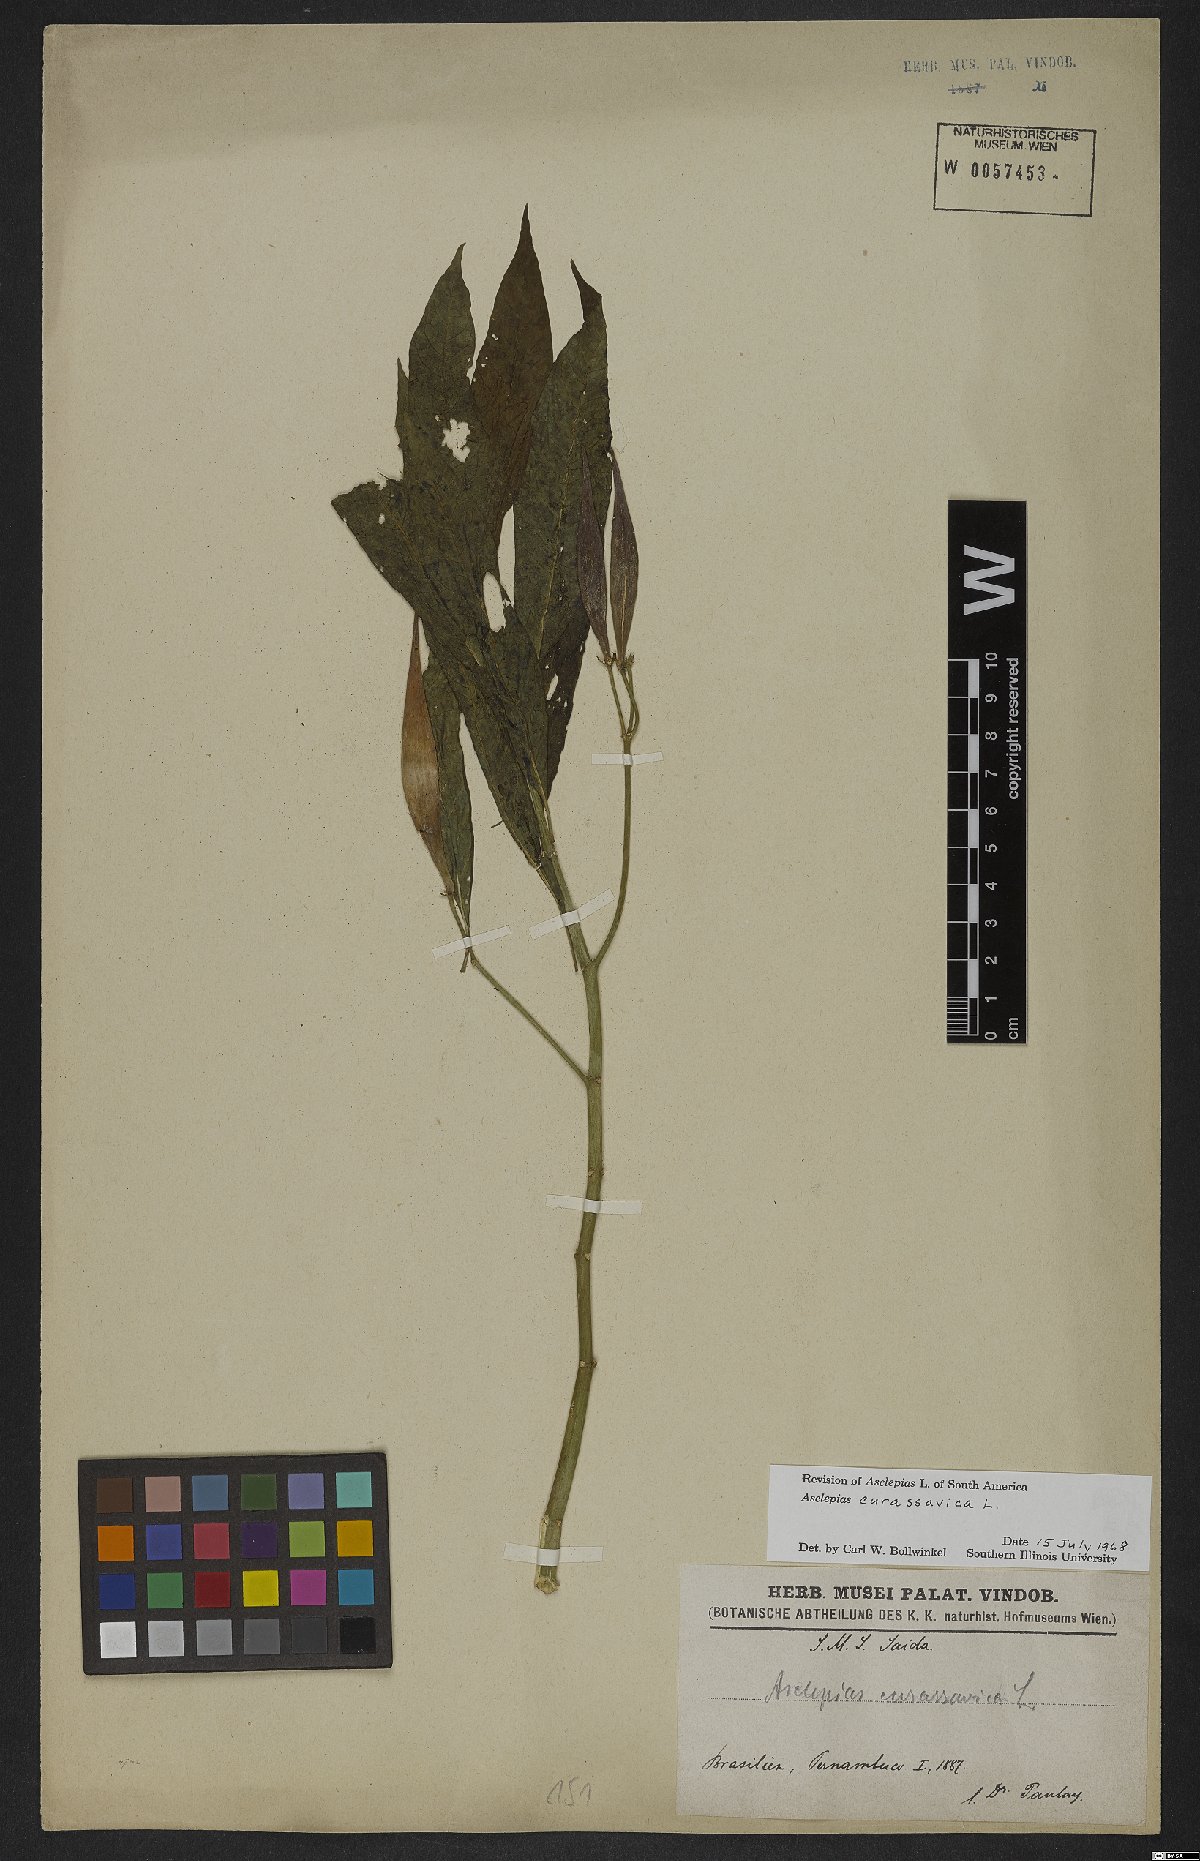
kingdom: Plantae
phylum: Tracheophyta
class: Magnoliopsida
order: Gentianales
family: Apocynaceae
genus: Asclepias
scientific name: Asclepias curassavica
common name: Bloodflower
